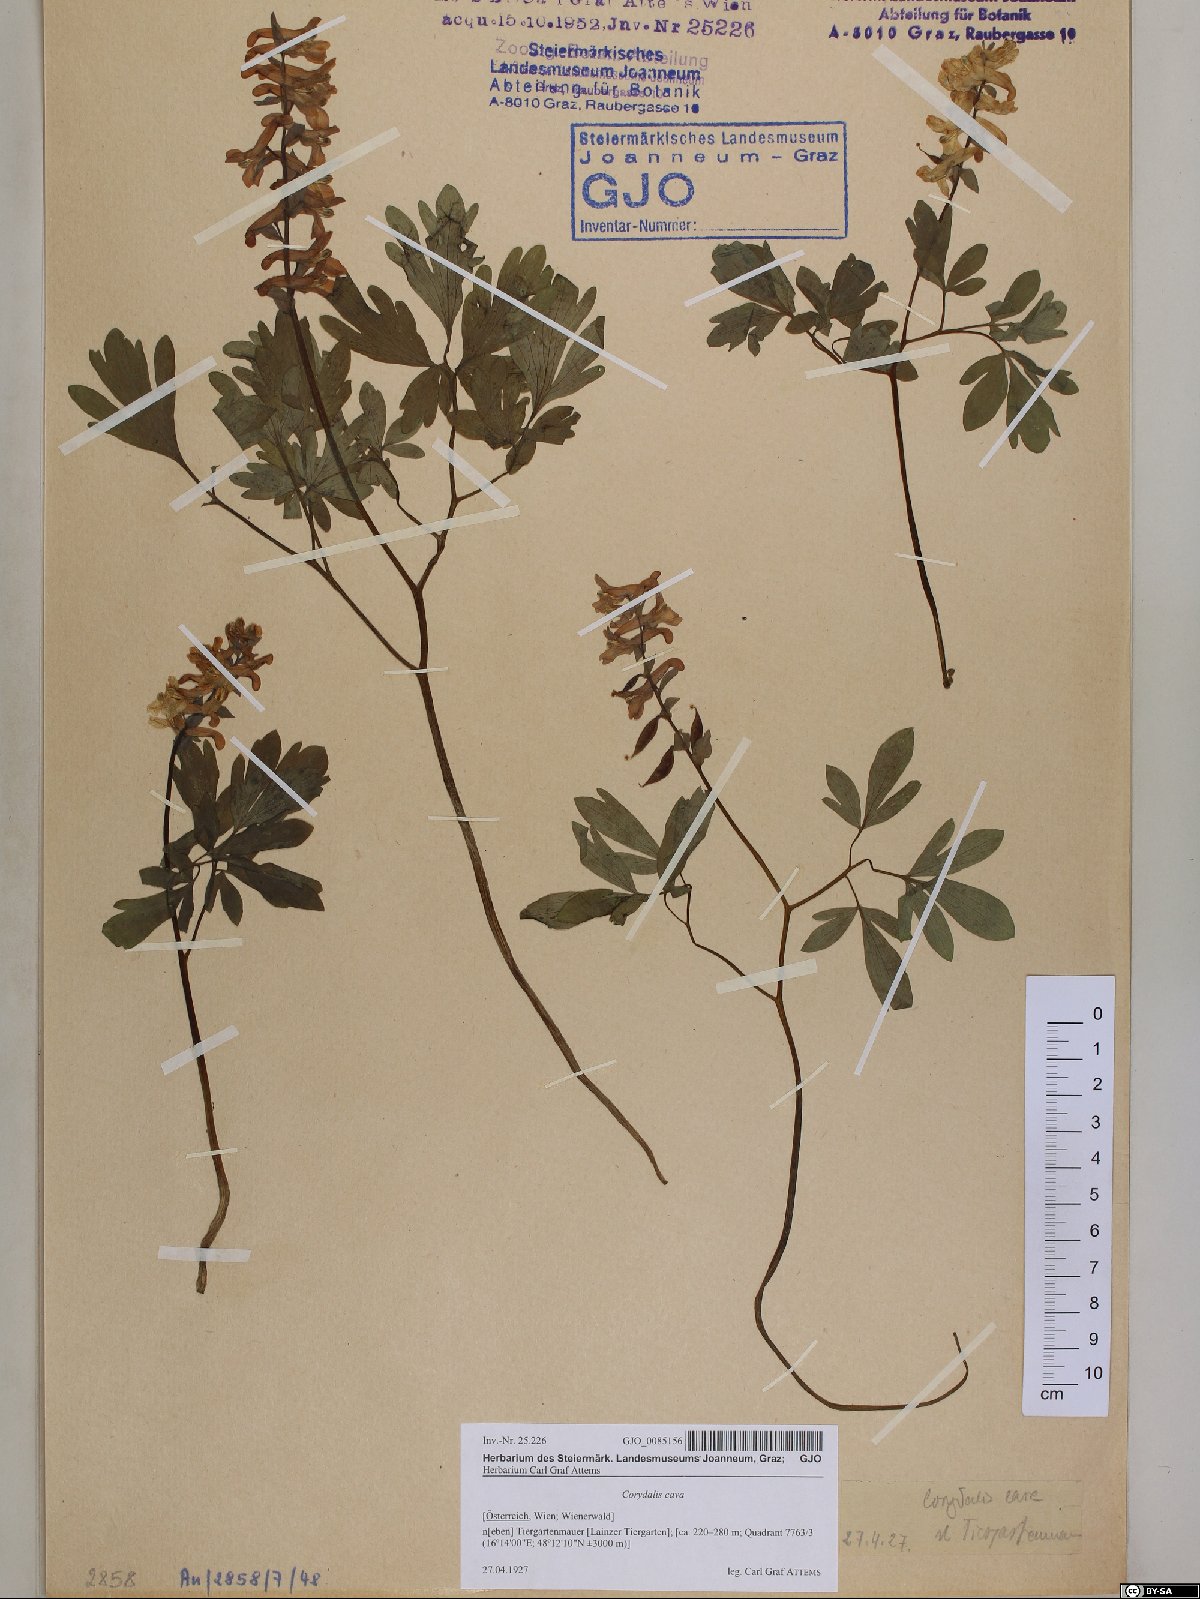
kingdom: Plantae
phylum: Tracheophyta
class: Magnoliopsida
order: Ranunculales
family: Papaveraceae
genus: Corydalis
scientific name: Corydalis cava
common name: Hollowroot
